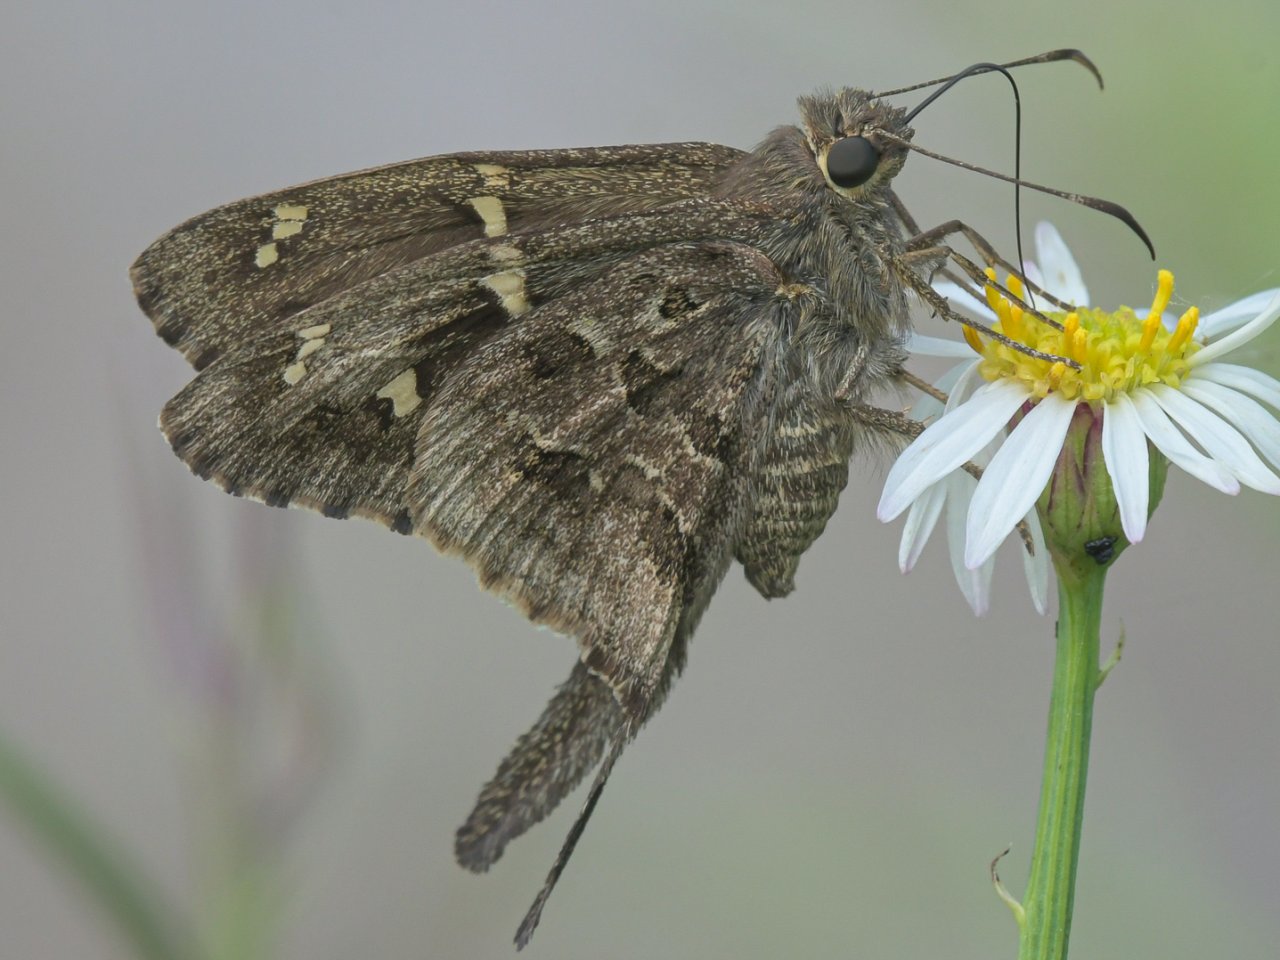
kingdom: Animalia
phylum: Arthropoda
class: Insecta
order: Lepidoptera
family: Hesperiidae
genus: Urbanus
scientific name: Urbanus dorantes
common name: Dorantes Longtail
